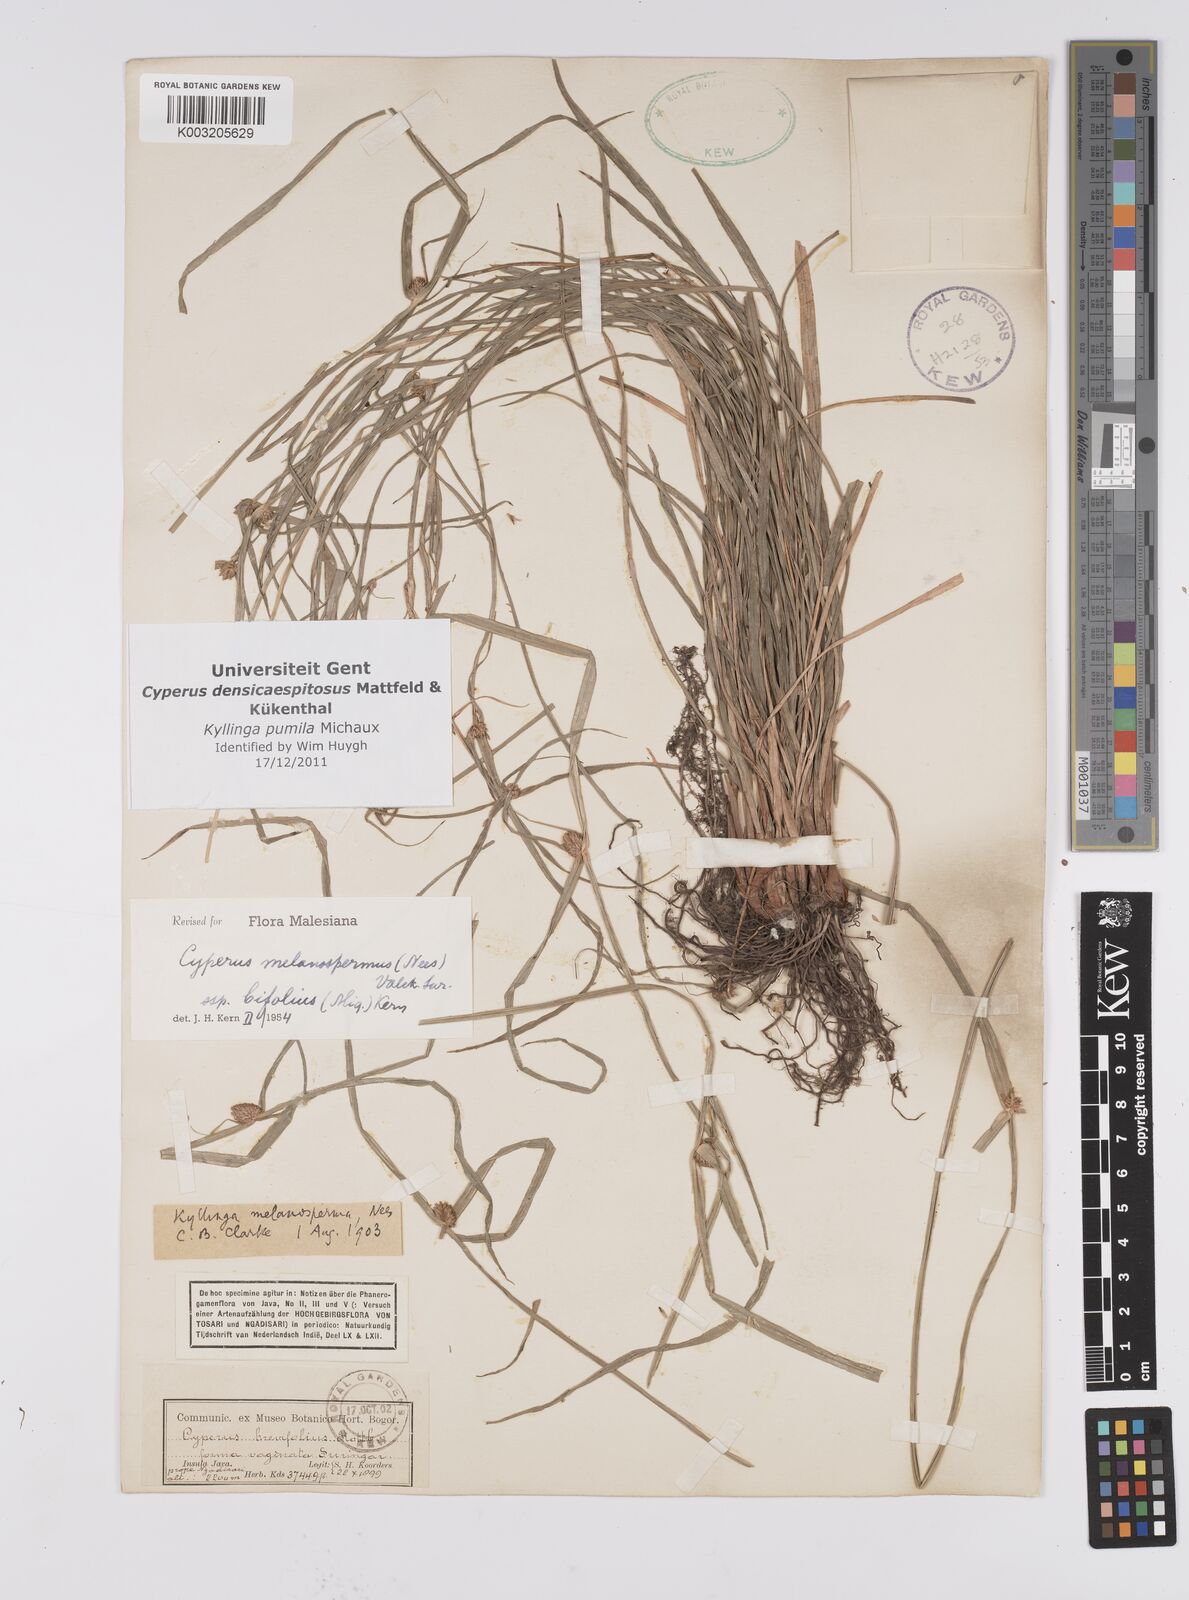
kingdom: Plantae
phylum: Tracheophyta
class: Liliopsida
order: Poales
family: Cyperaceae
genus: Cyperus
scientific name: Cyperus pumilus
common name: Low flatsedge
